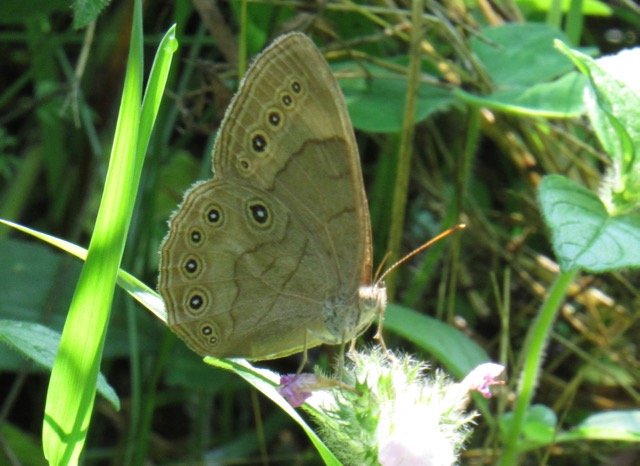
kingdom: Animalia
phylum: Arthropoda
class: Insecta
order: Lepidoptera
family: Nymphalidae
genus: Lethe
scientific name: Lethe eurydice
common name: Appalachian Eyed Brown
